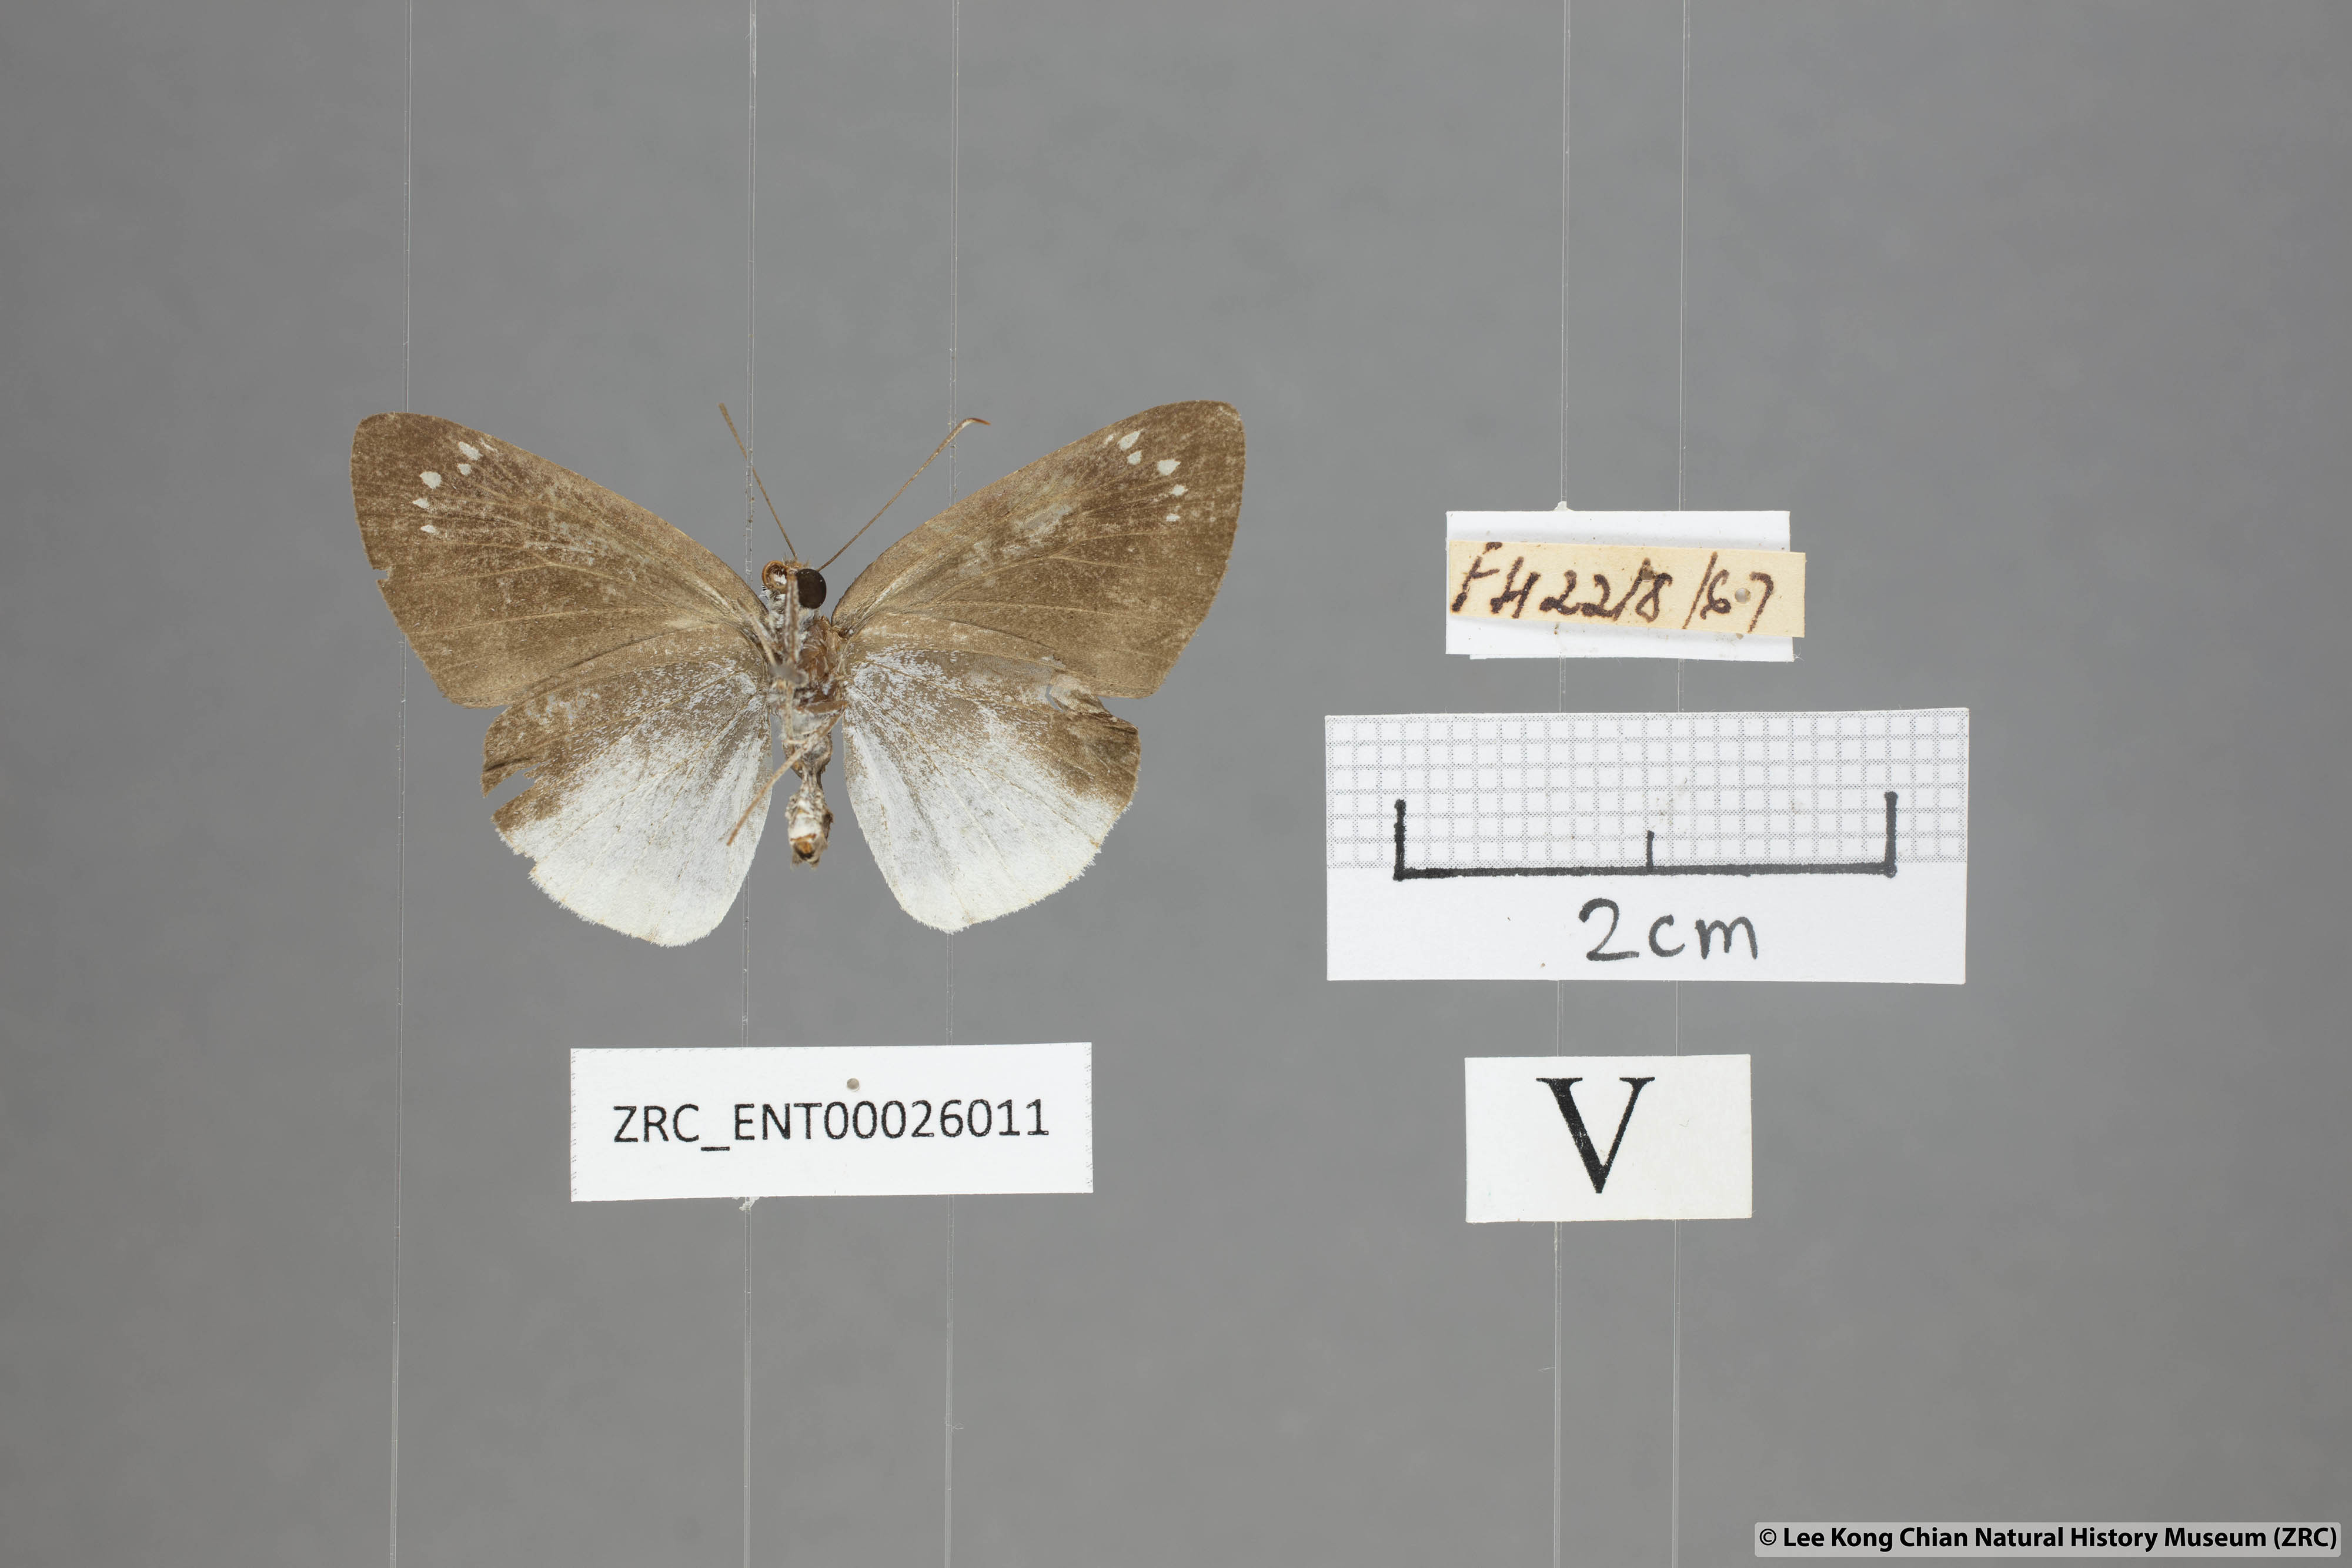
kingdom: Animalia
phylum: Arthropoda
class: Insecta
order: Lepidoptera
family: Hesperiidae
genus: Tagiades
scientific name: Tagiades lavata
